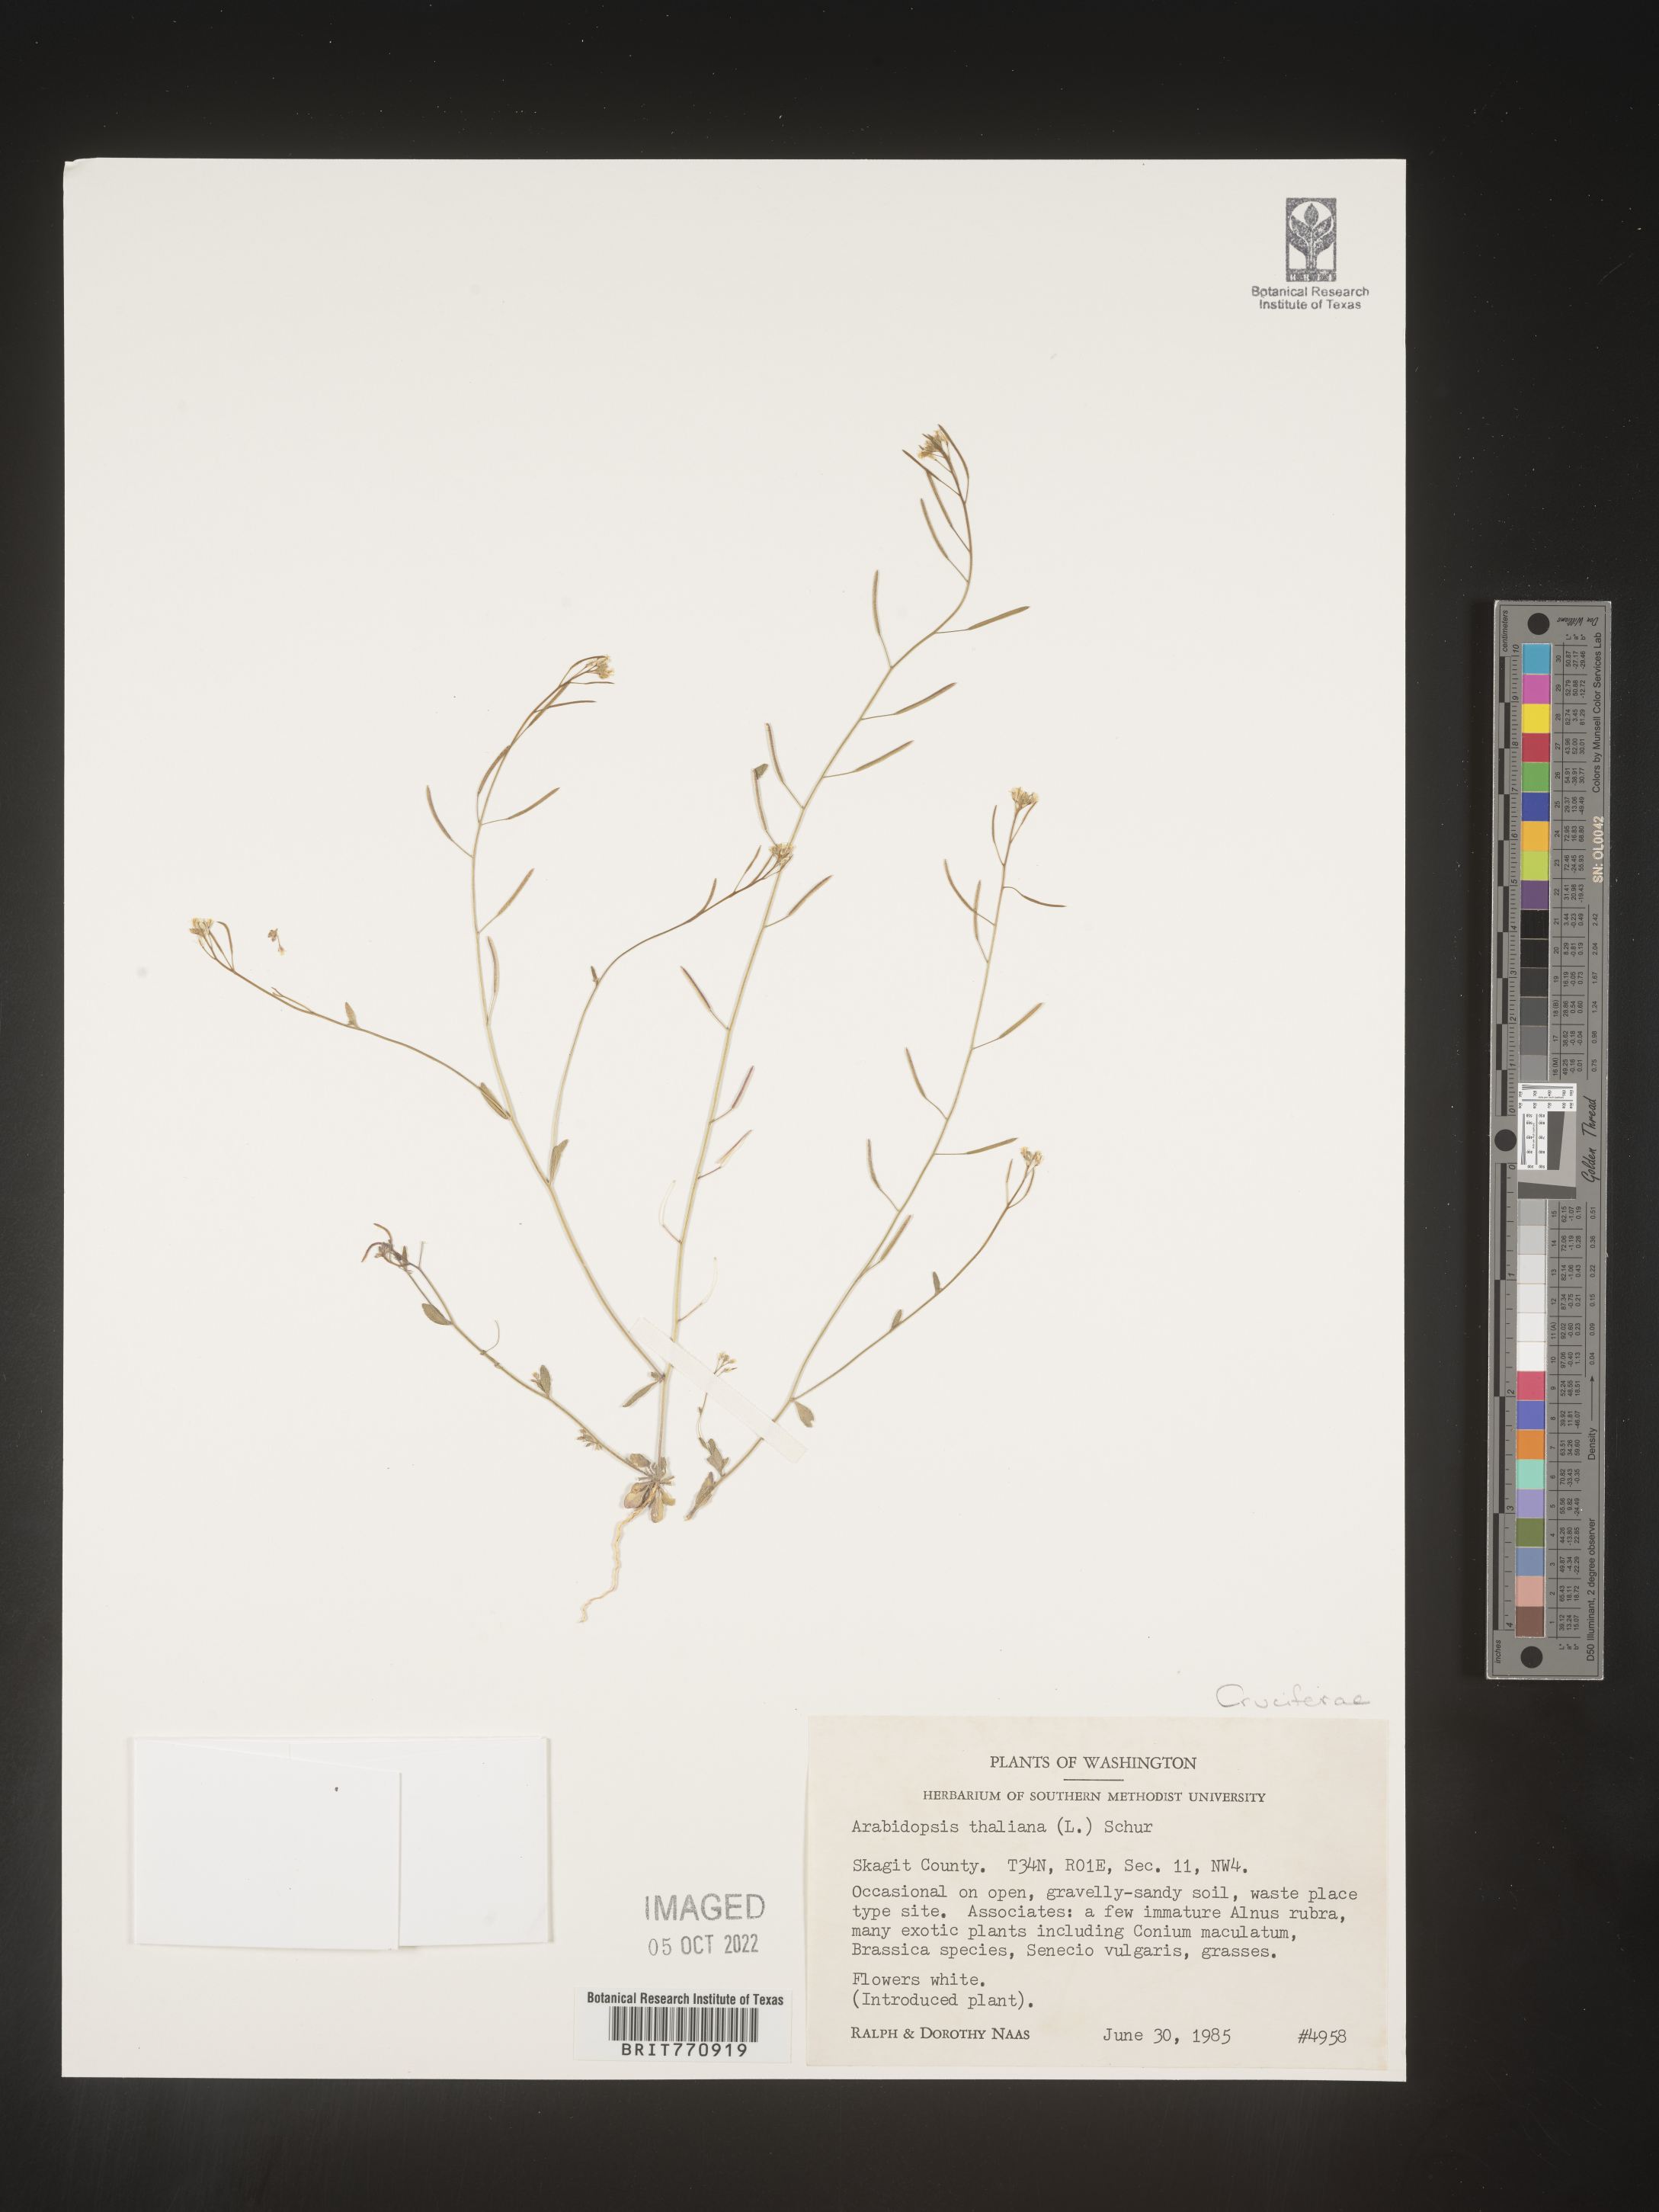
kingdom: Plantae
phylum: Tracheophyta
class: Magnoliopsida
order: Brassicales
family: Brassicaceae
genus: Arabidopsis
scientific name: Arabidopsis thaliana
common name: Thale cress
